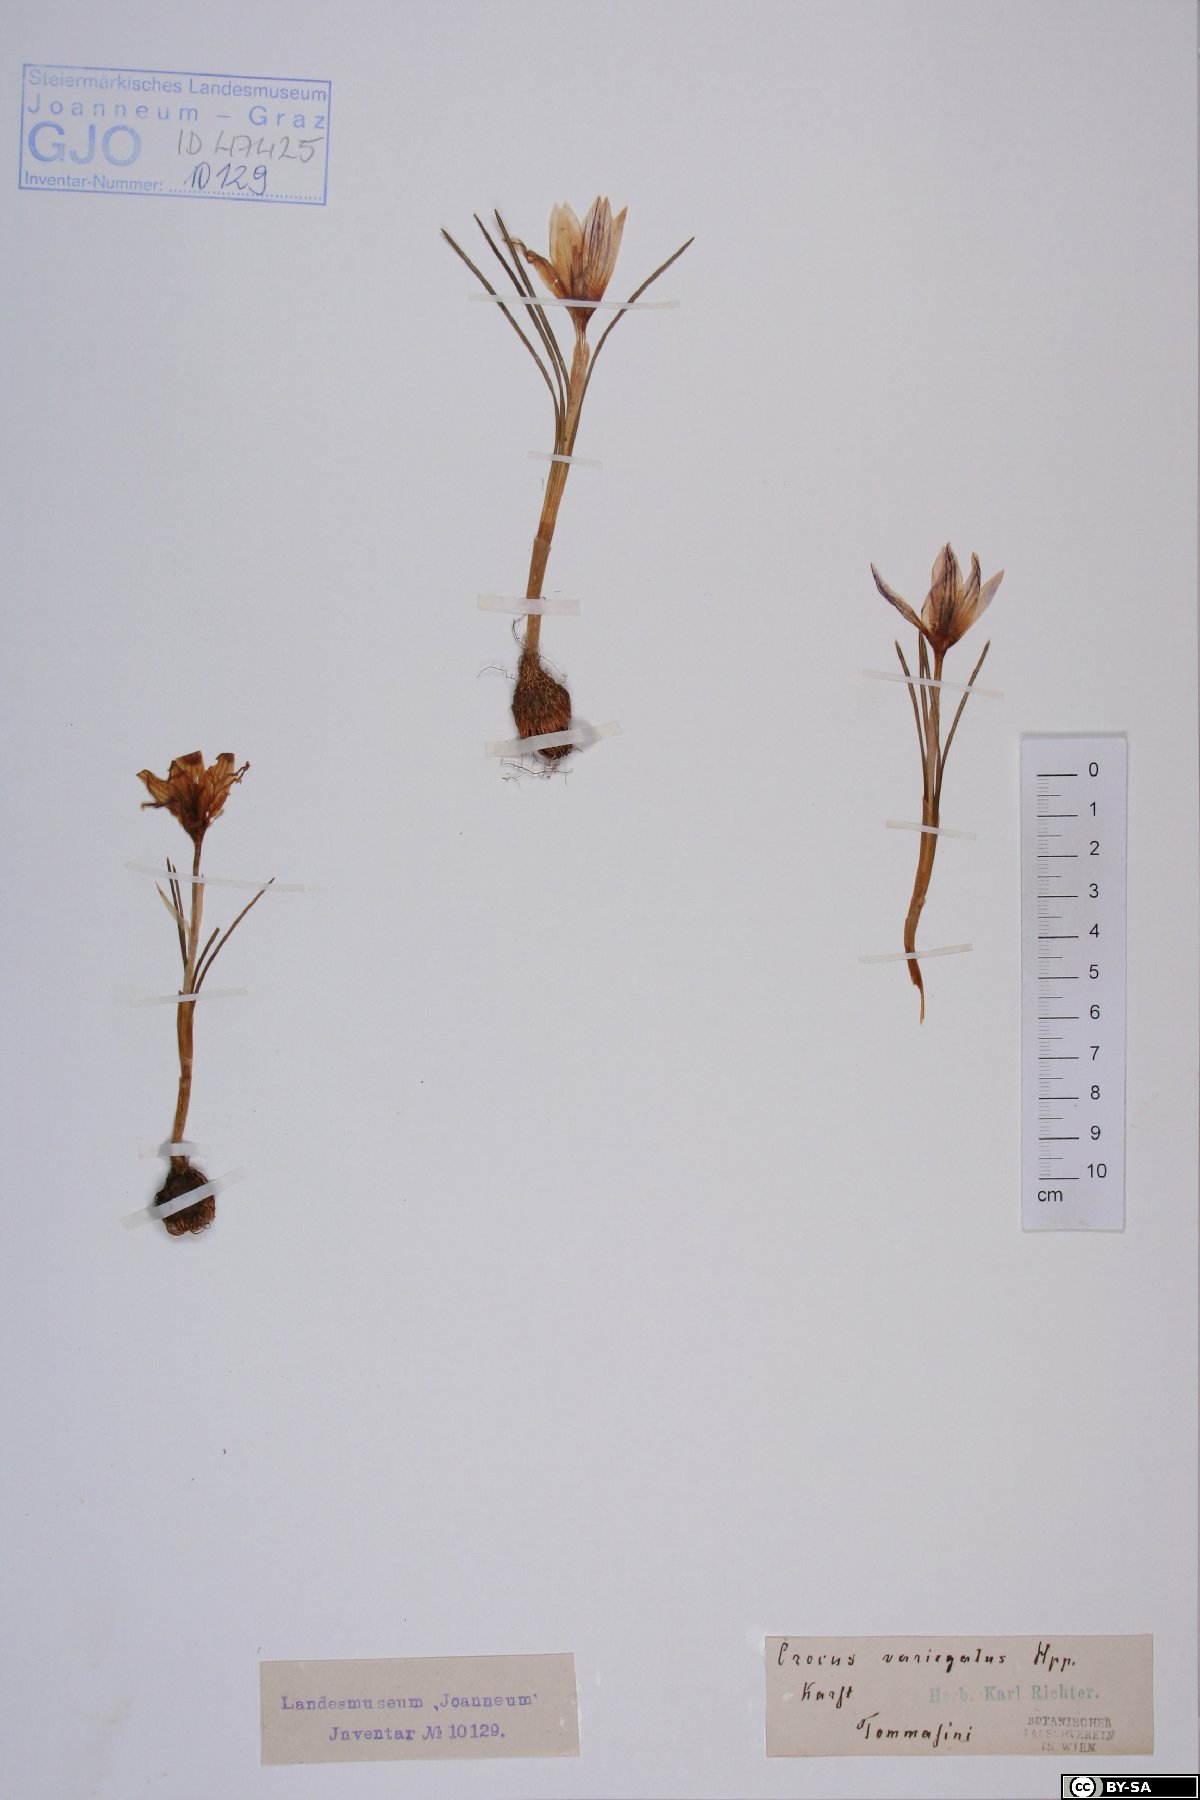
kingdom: Plantae
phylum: Tracheophyta
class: Liliopsida
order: Asparagales
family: Iridaceae
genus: Crocus
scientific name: Crocus variegatus
